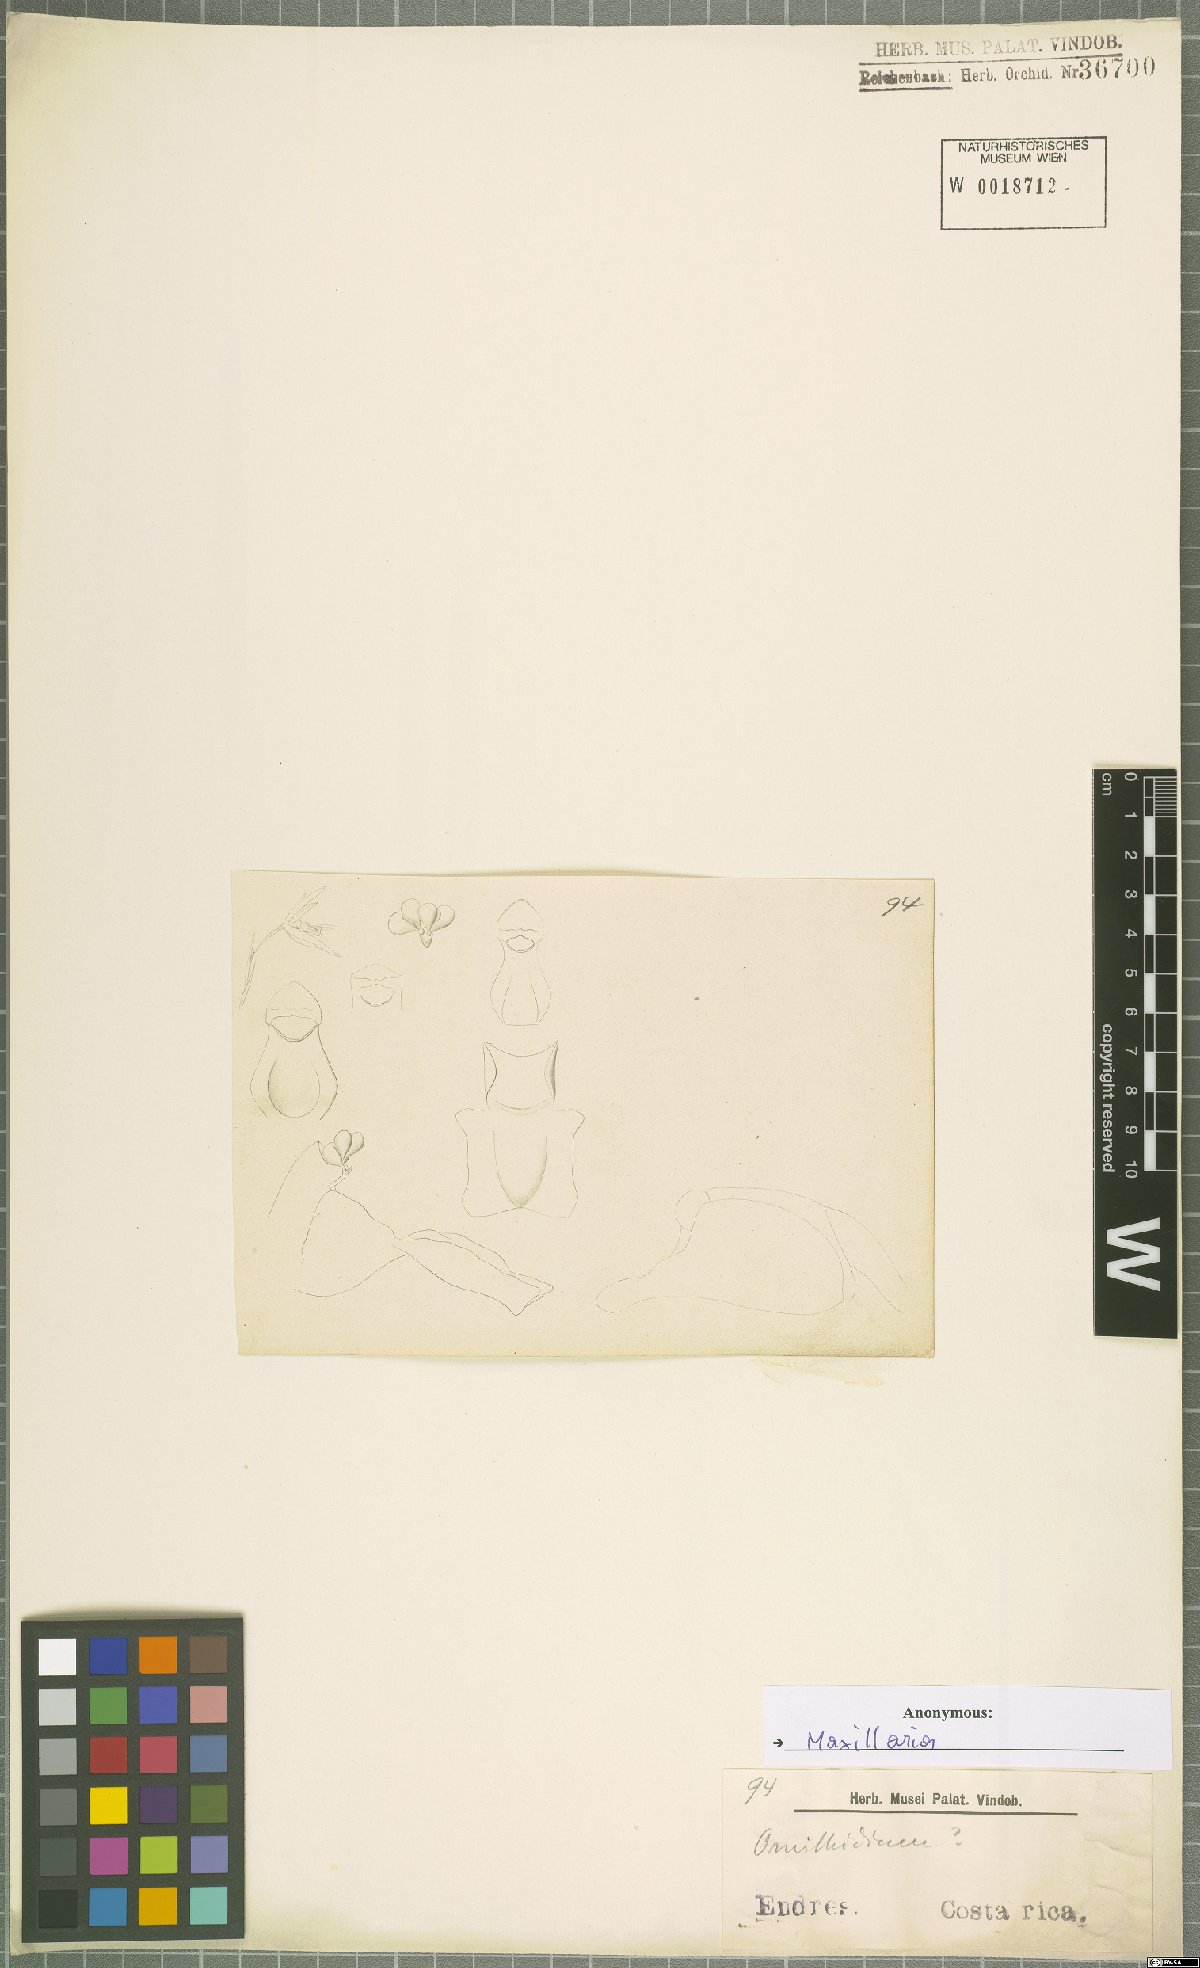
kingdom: Plantae
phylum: Tracheophyta
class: Liliopsida
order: Asparagales
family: Orchidaceae
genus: Maxillaria
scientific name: Maxillaria
